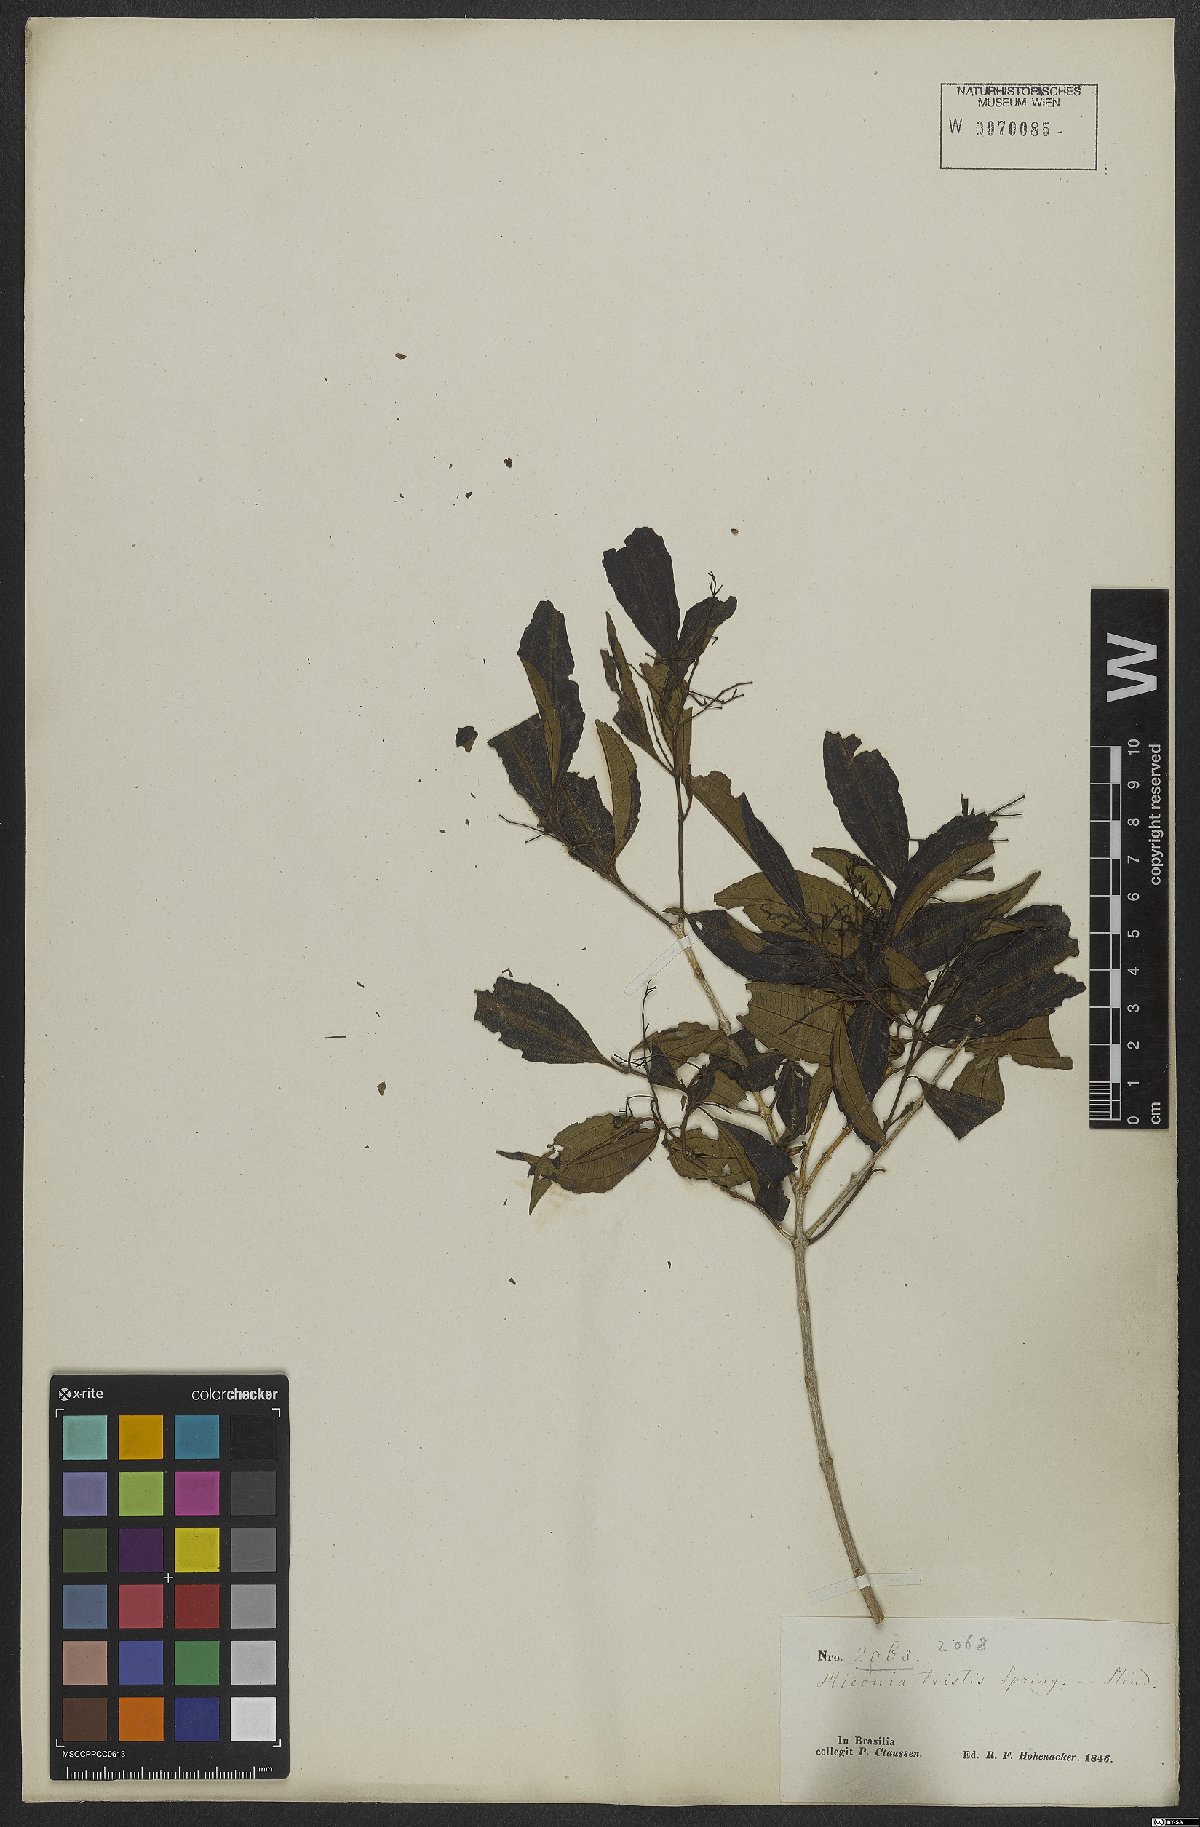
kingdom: Plantae
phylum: Tracheophyta
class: Magnoliopsida
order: Myrtales
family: Melastomataceae
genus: Miconia
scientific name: Miconia tristis
